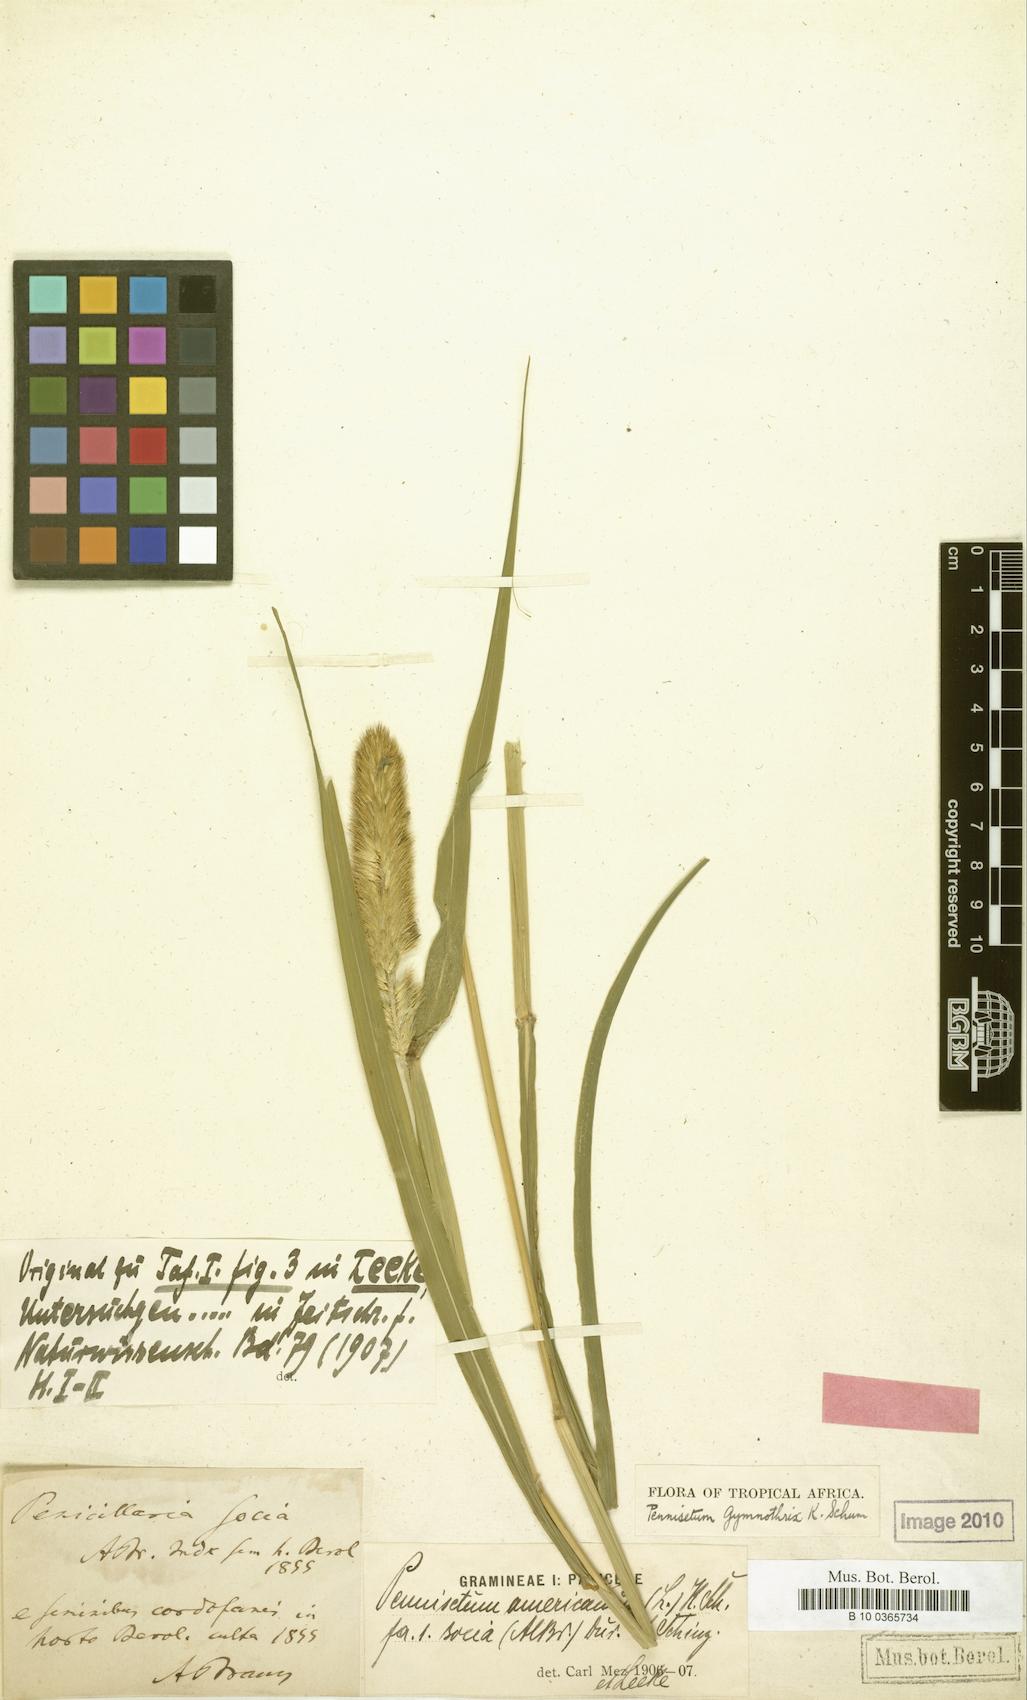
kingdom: Plantae
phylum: Tracheophyta
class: Liliopsida
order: Poales
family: Poaceae
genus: Cenchrus
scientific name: Cenchrus sieberianus
